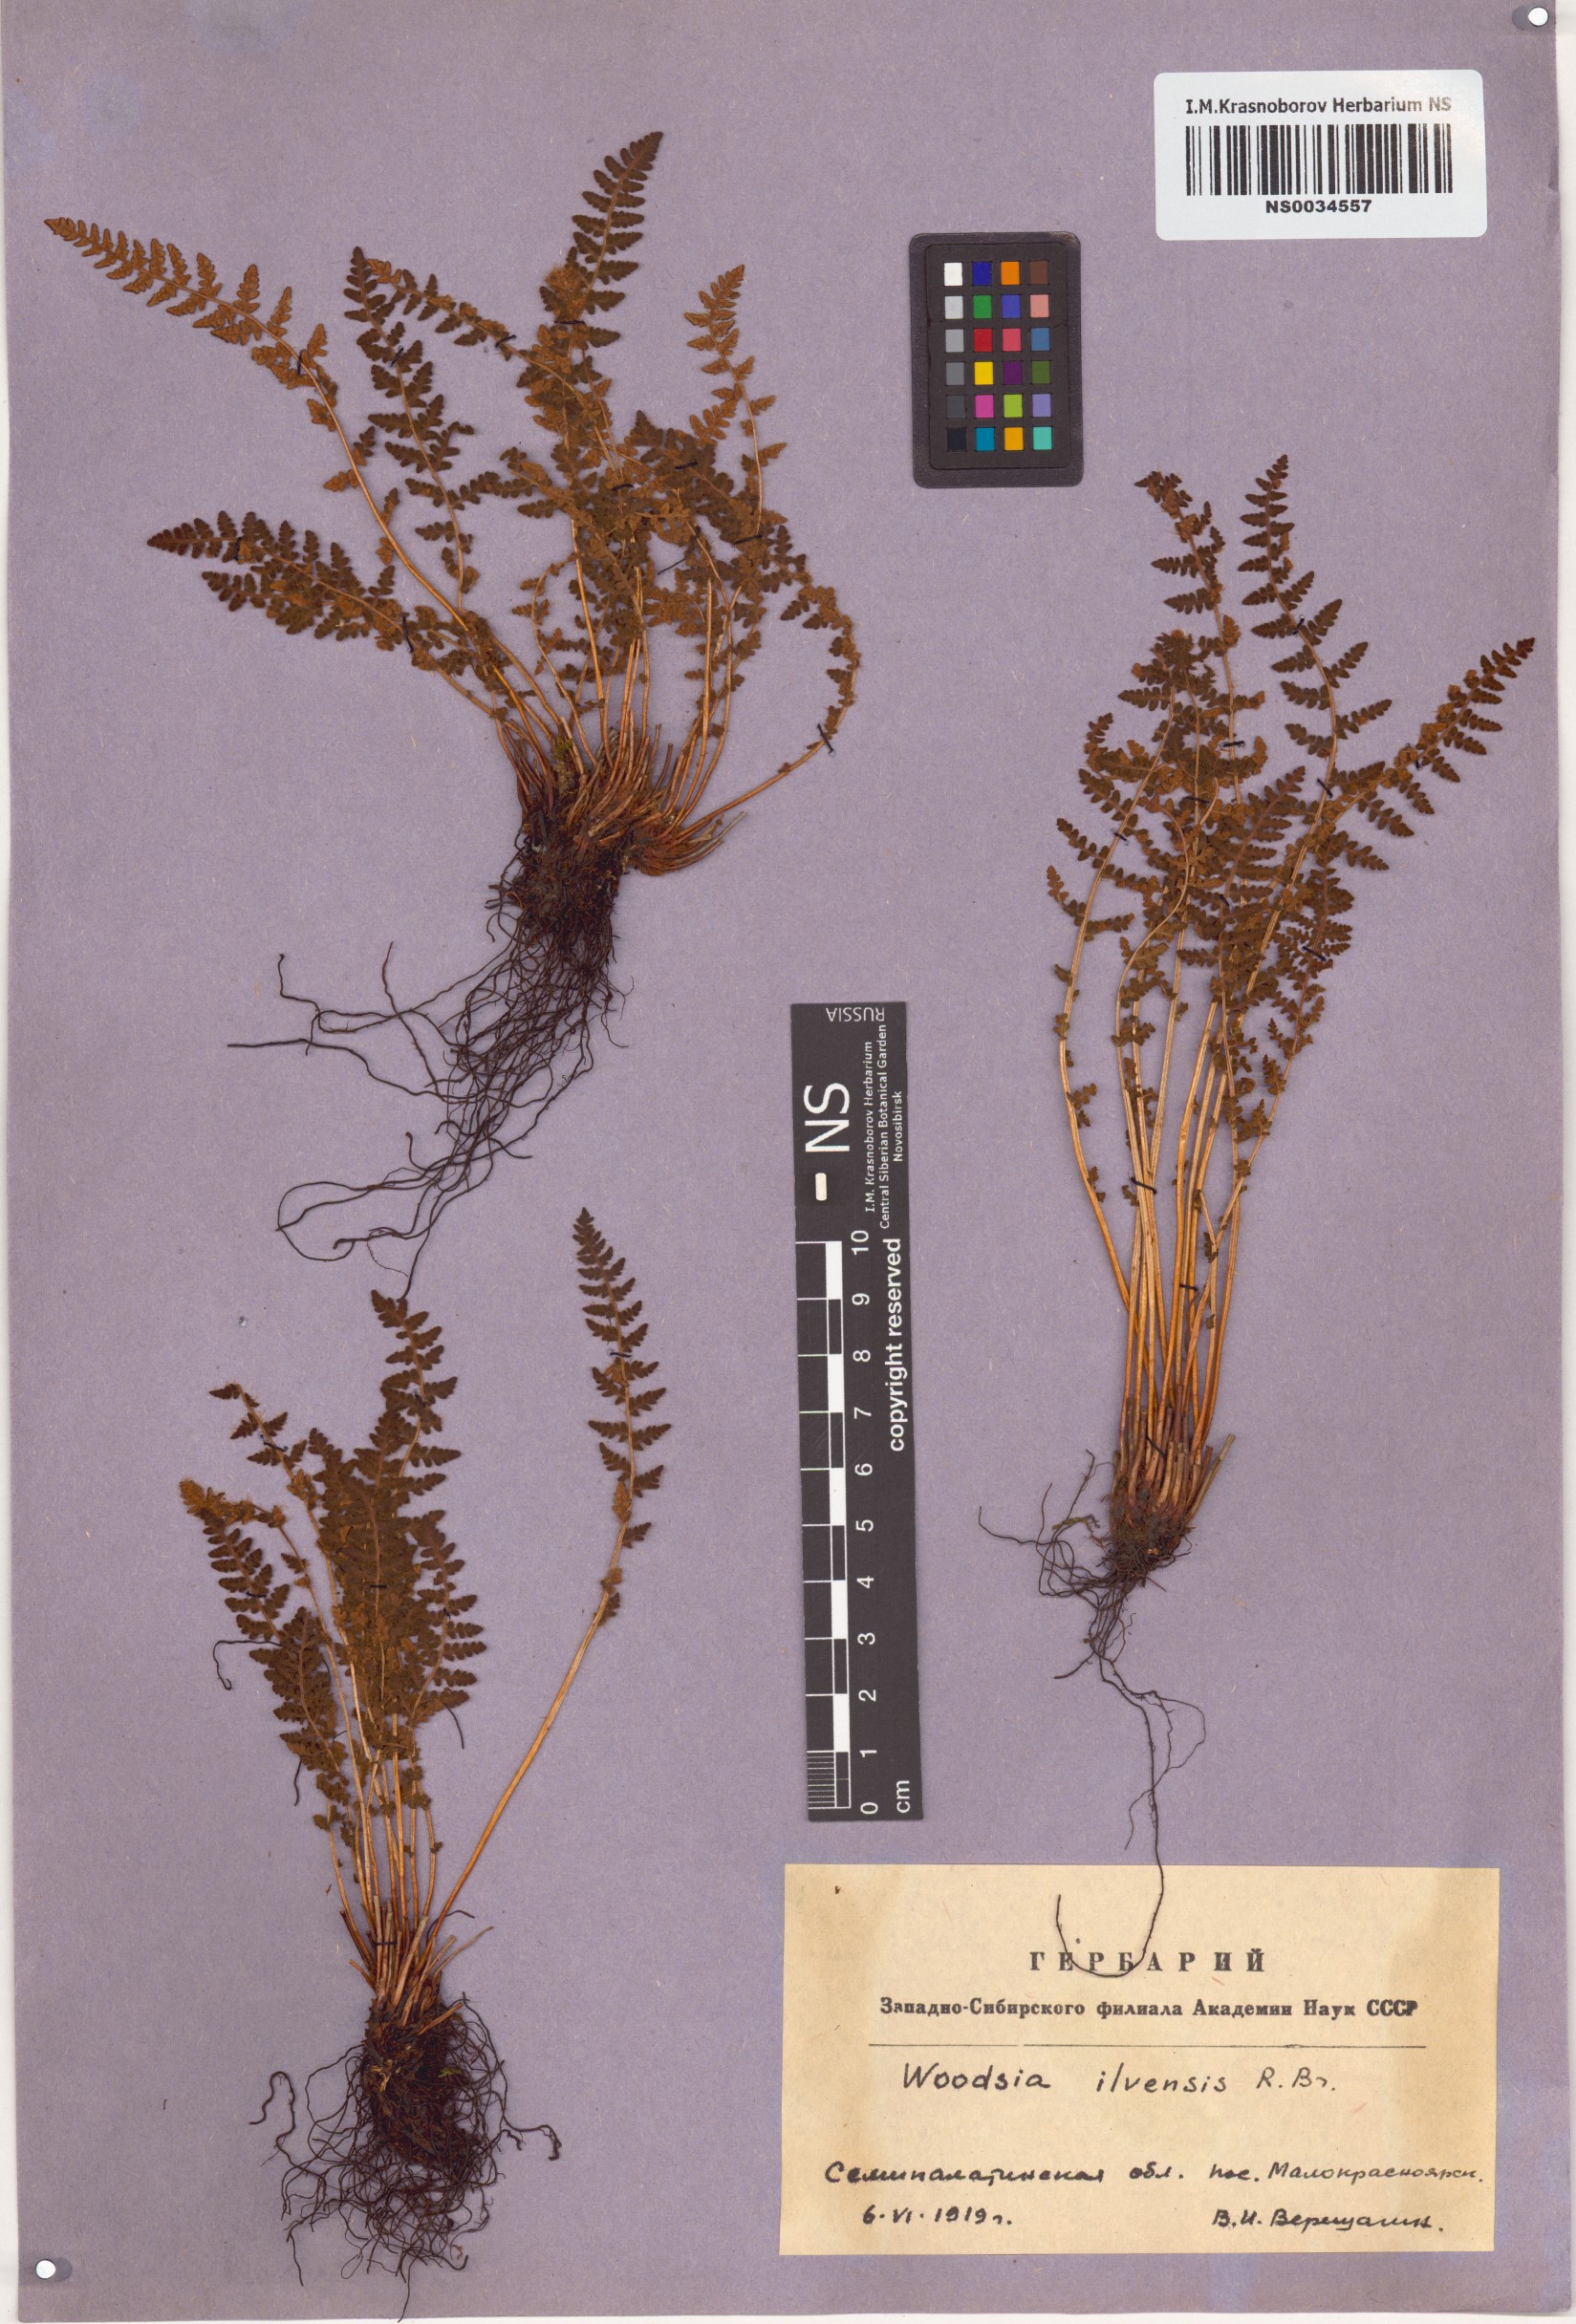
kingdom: Plantae
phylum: Tracheophyta
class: Polypodiopsida
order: Polypodiales
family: Woodsiaceae
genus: Woodsia
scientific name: Woodsia ilvensis
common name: Fragrant woodsia
